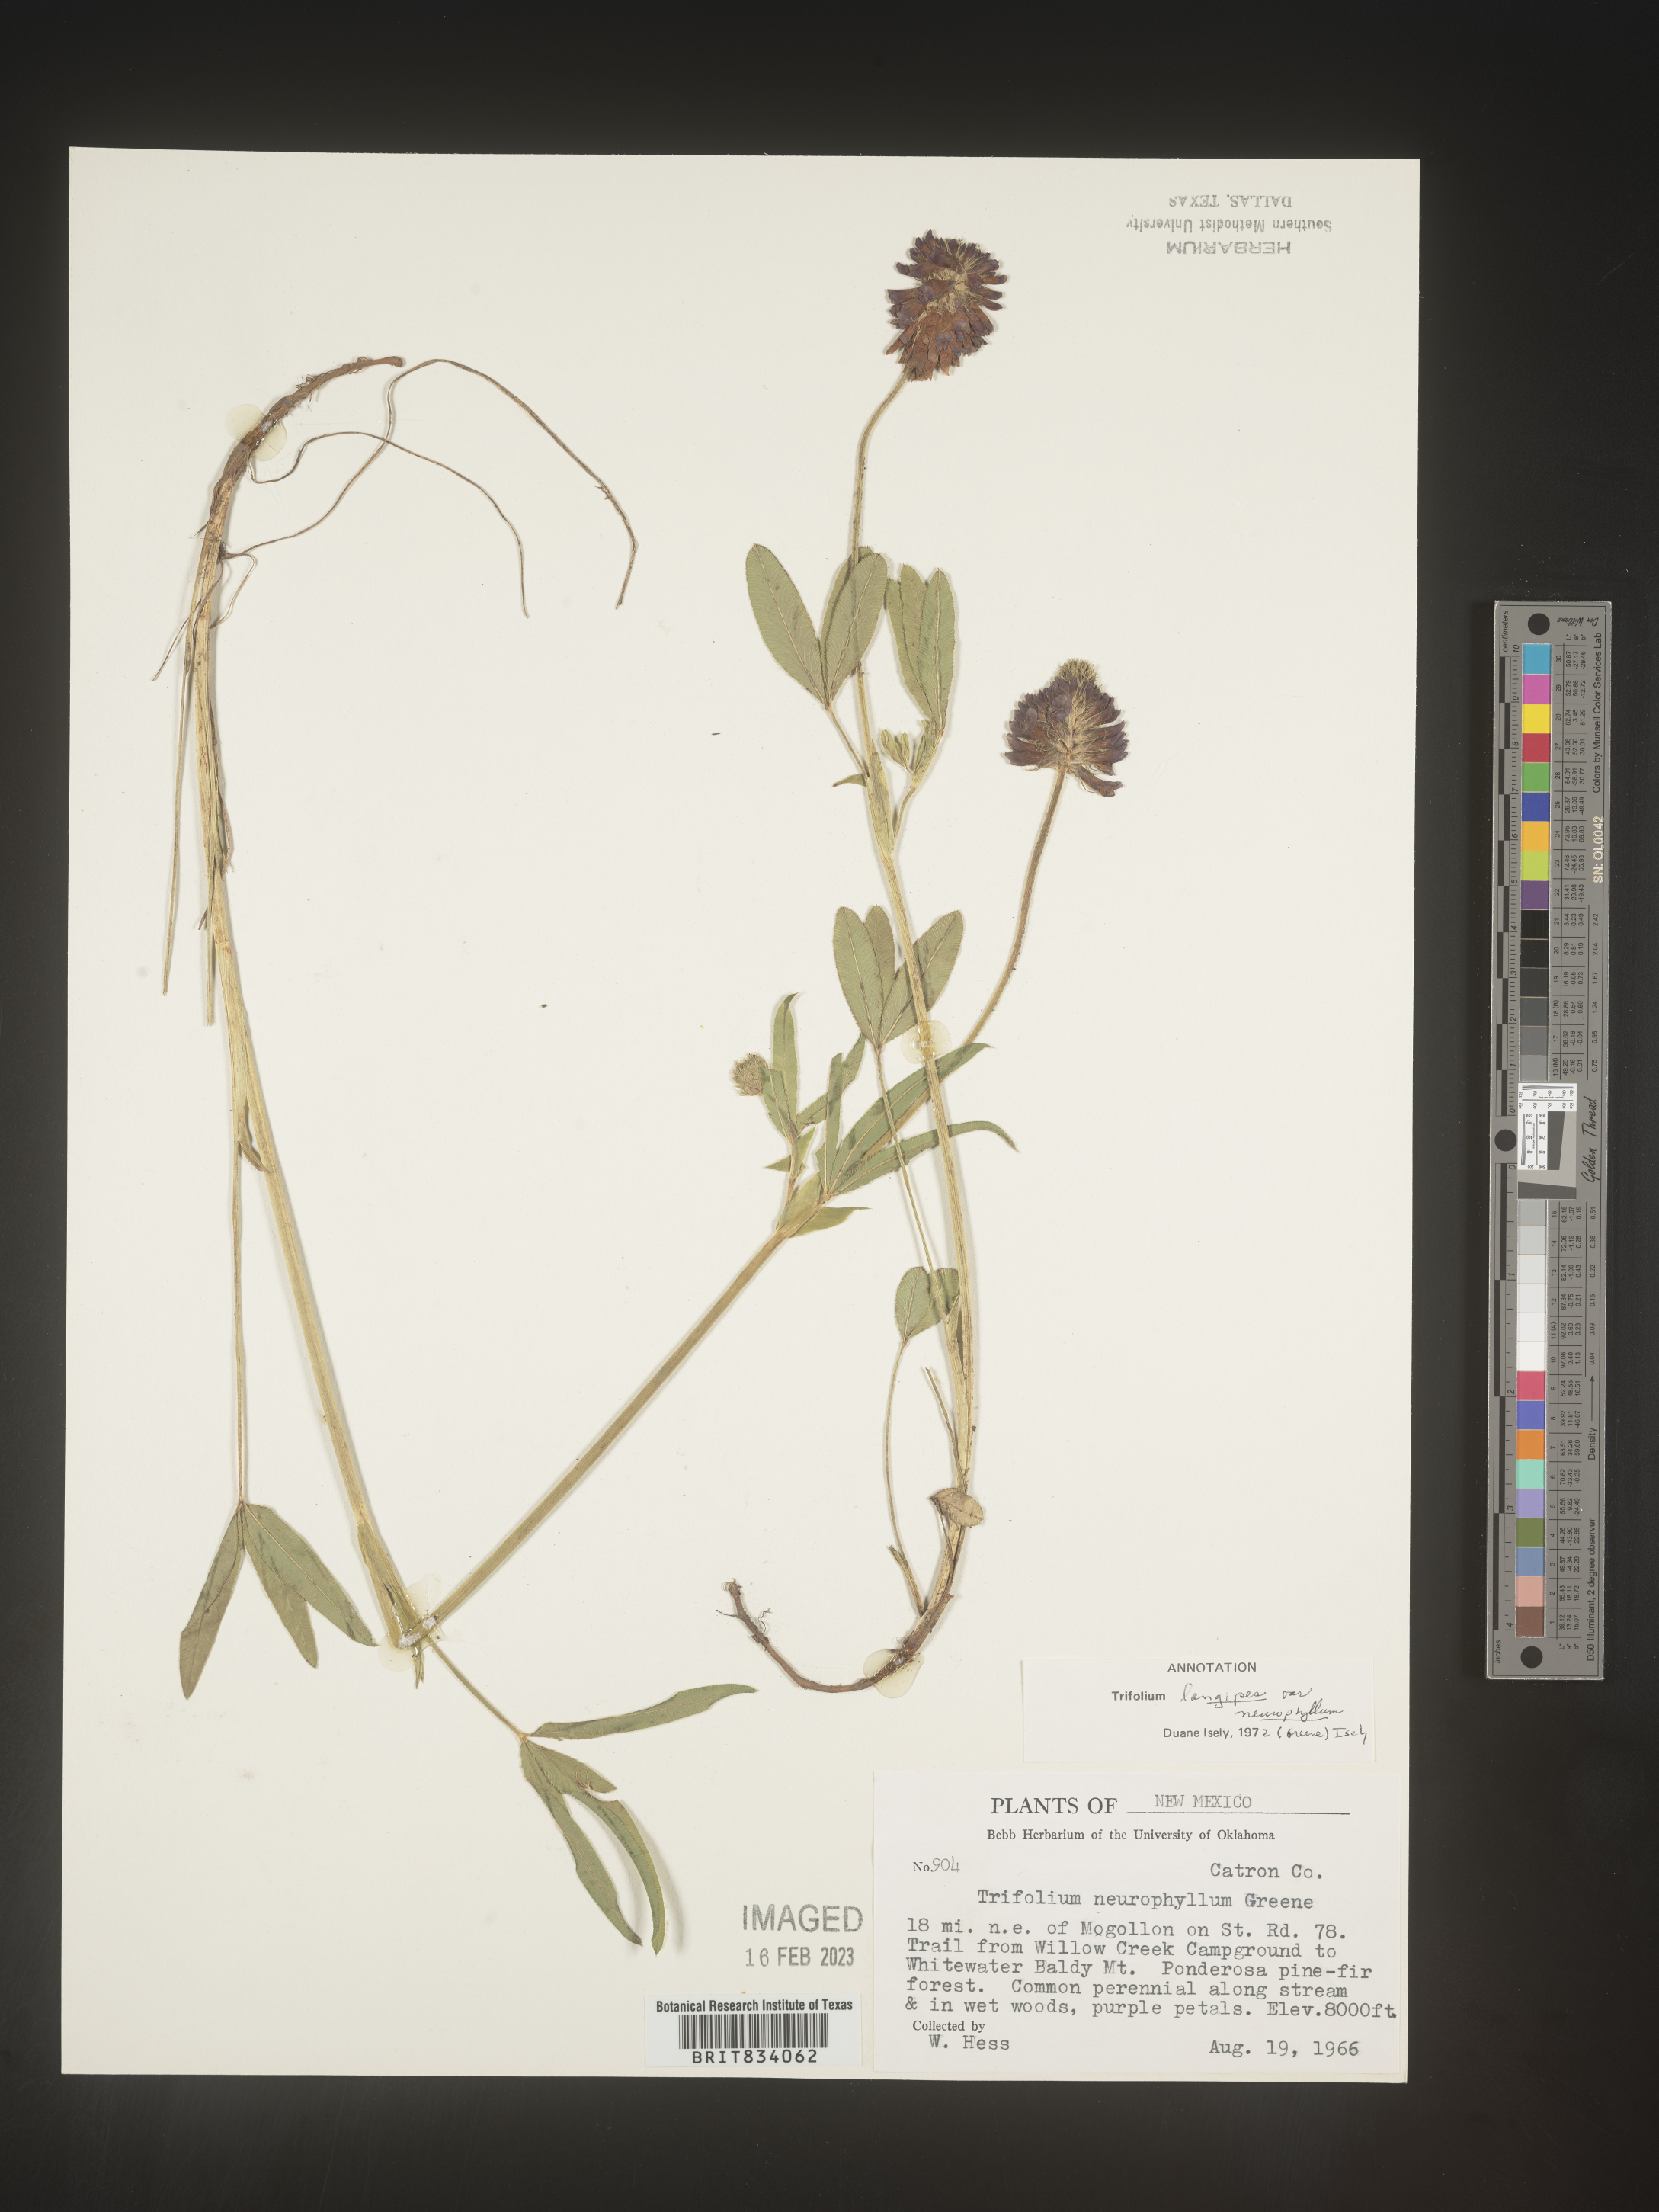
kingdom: Plantae
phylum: Tracheophyta
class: Magnoliopsida
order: Fabales
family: Fabaceae
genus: Trifolium
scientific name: Trifolium
